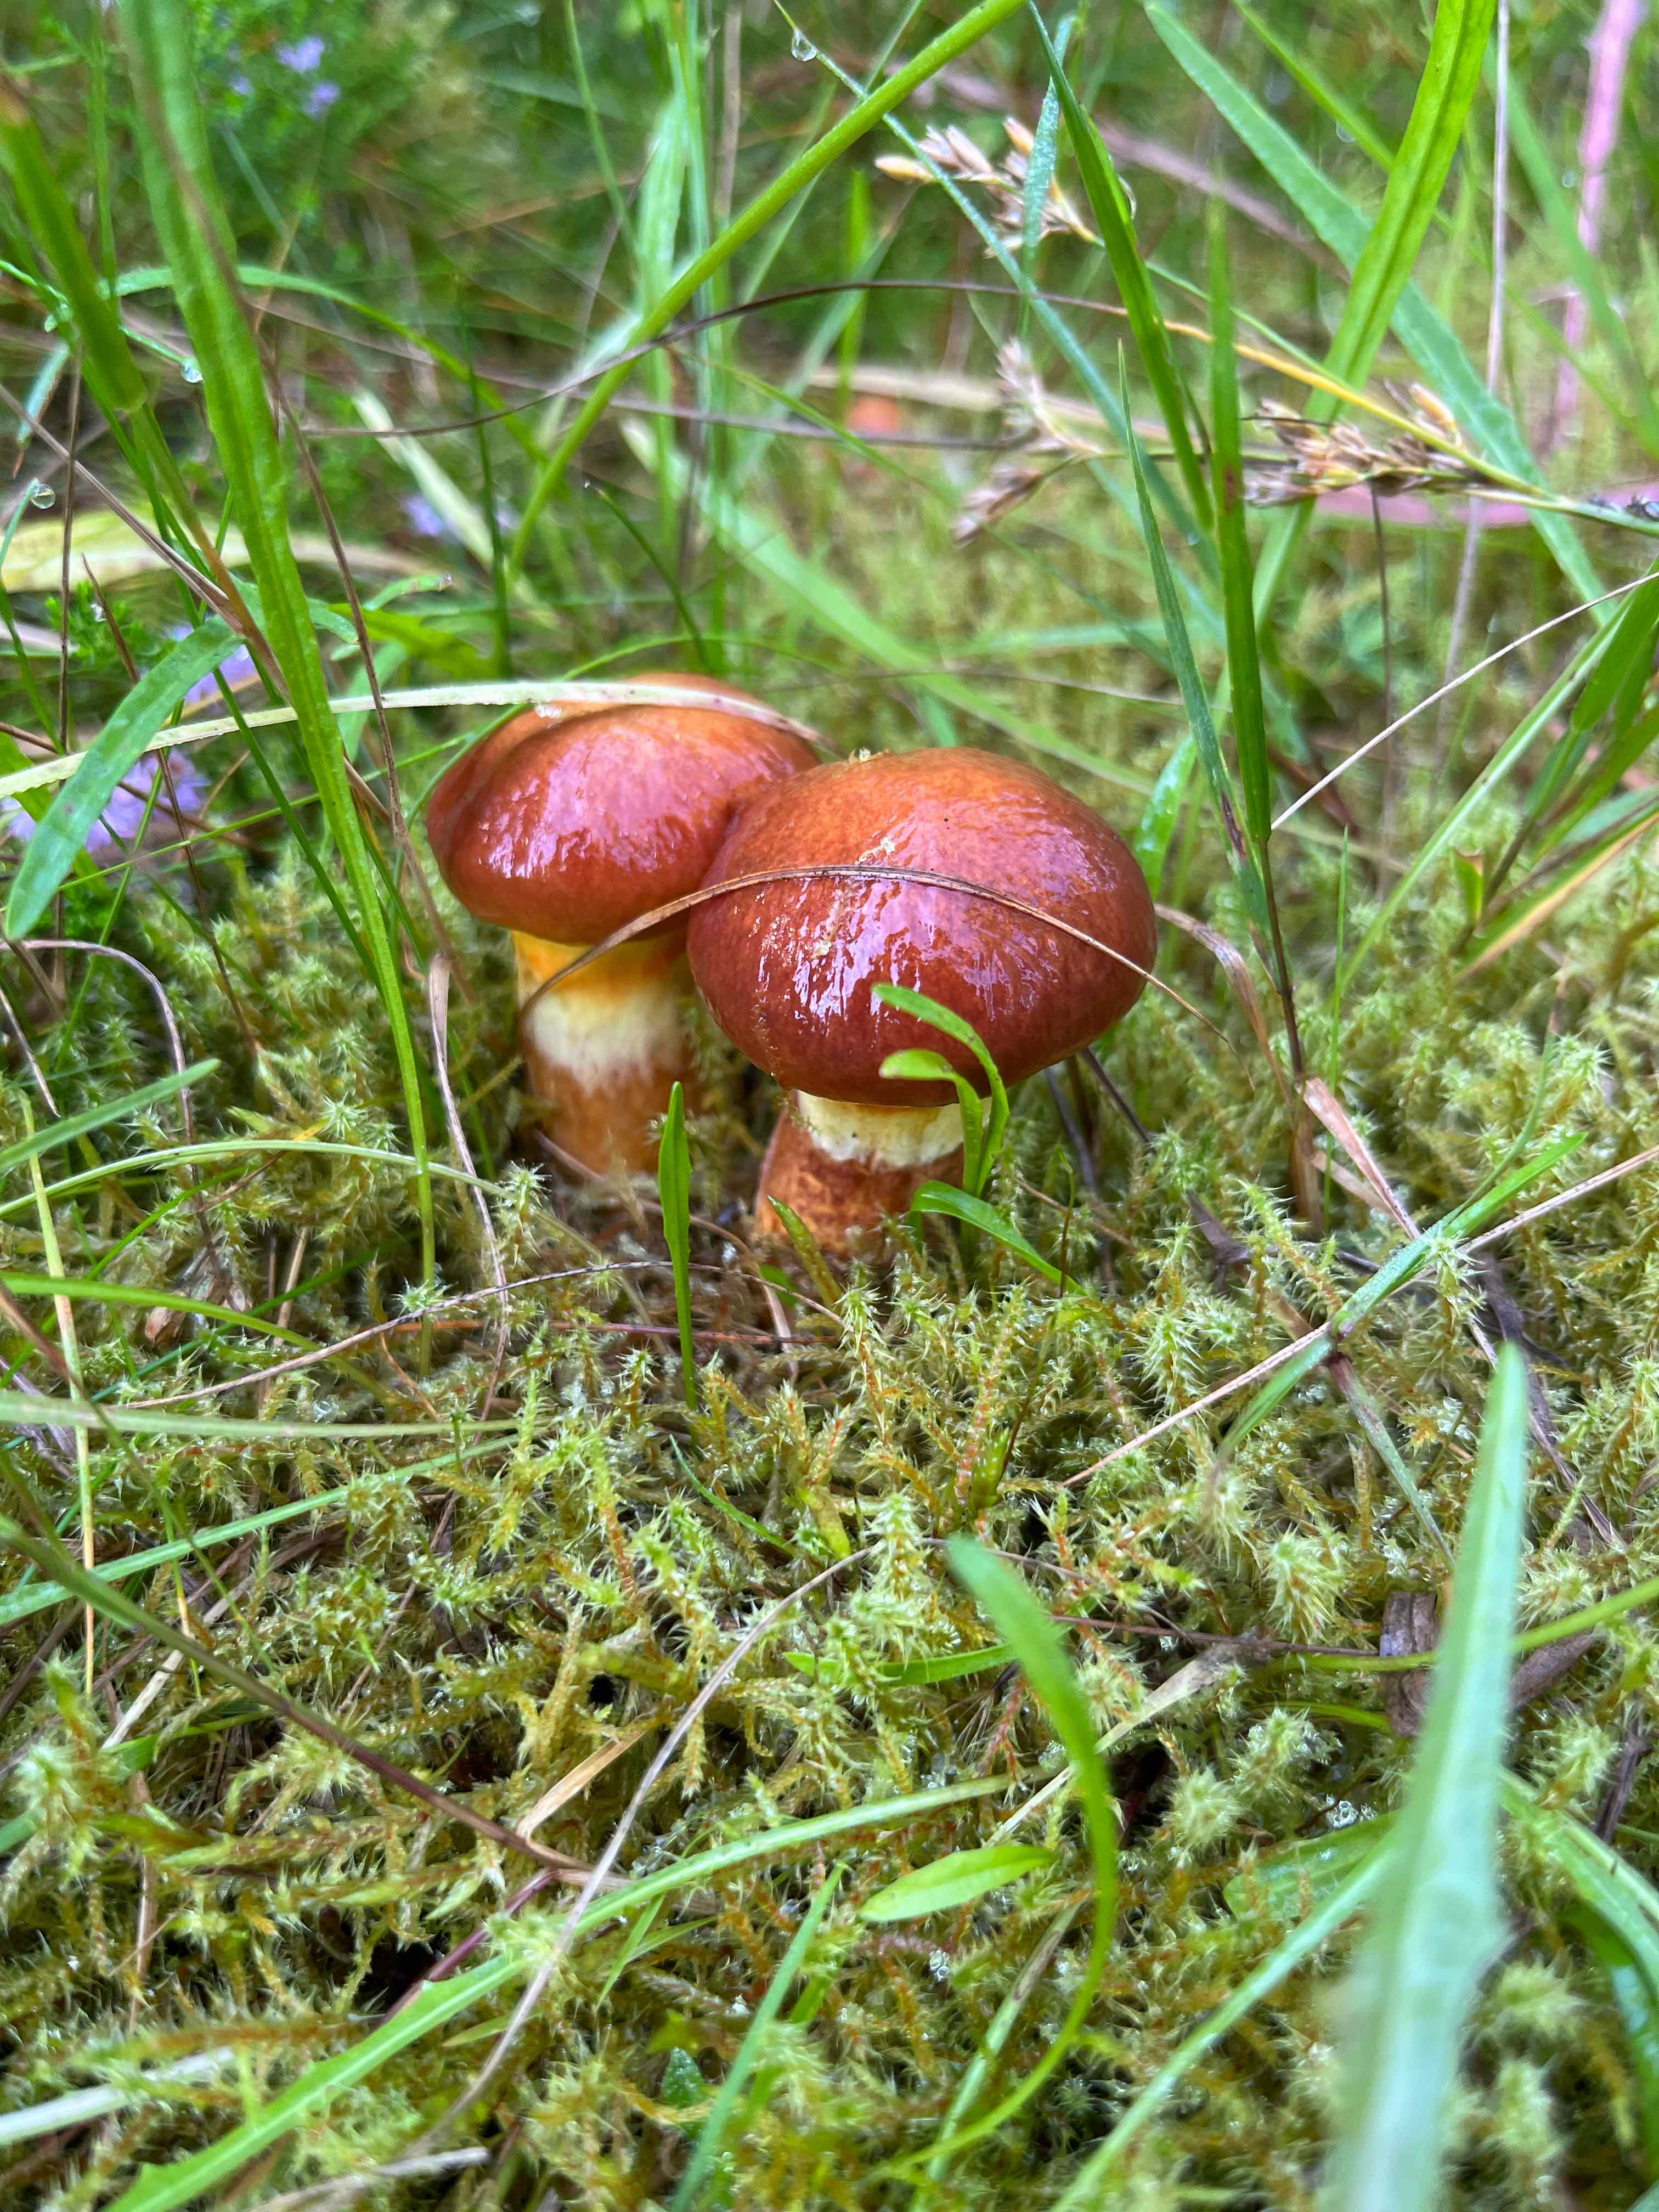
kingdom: Fungi
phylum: Basidiomycota
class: Agaricomycetes
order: Boletales
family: Suillaceae
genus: Suillus
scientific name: Suillus grevillei
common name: Larch bolete
